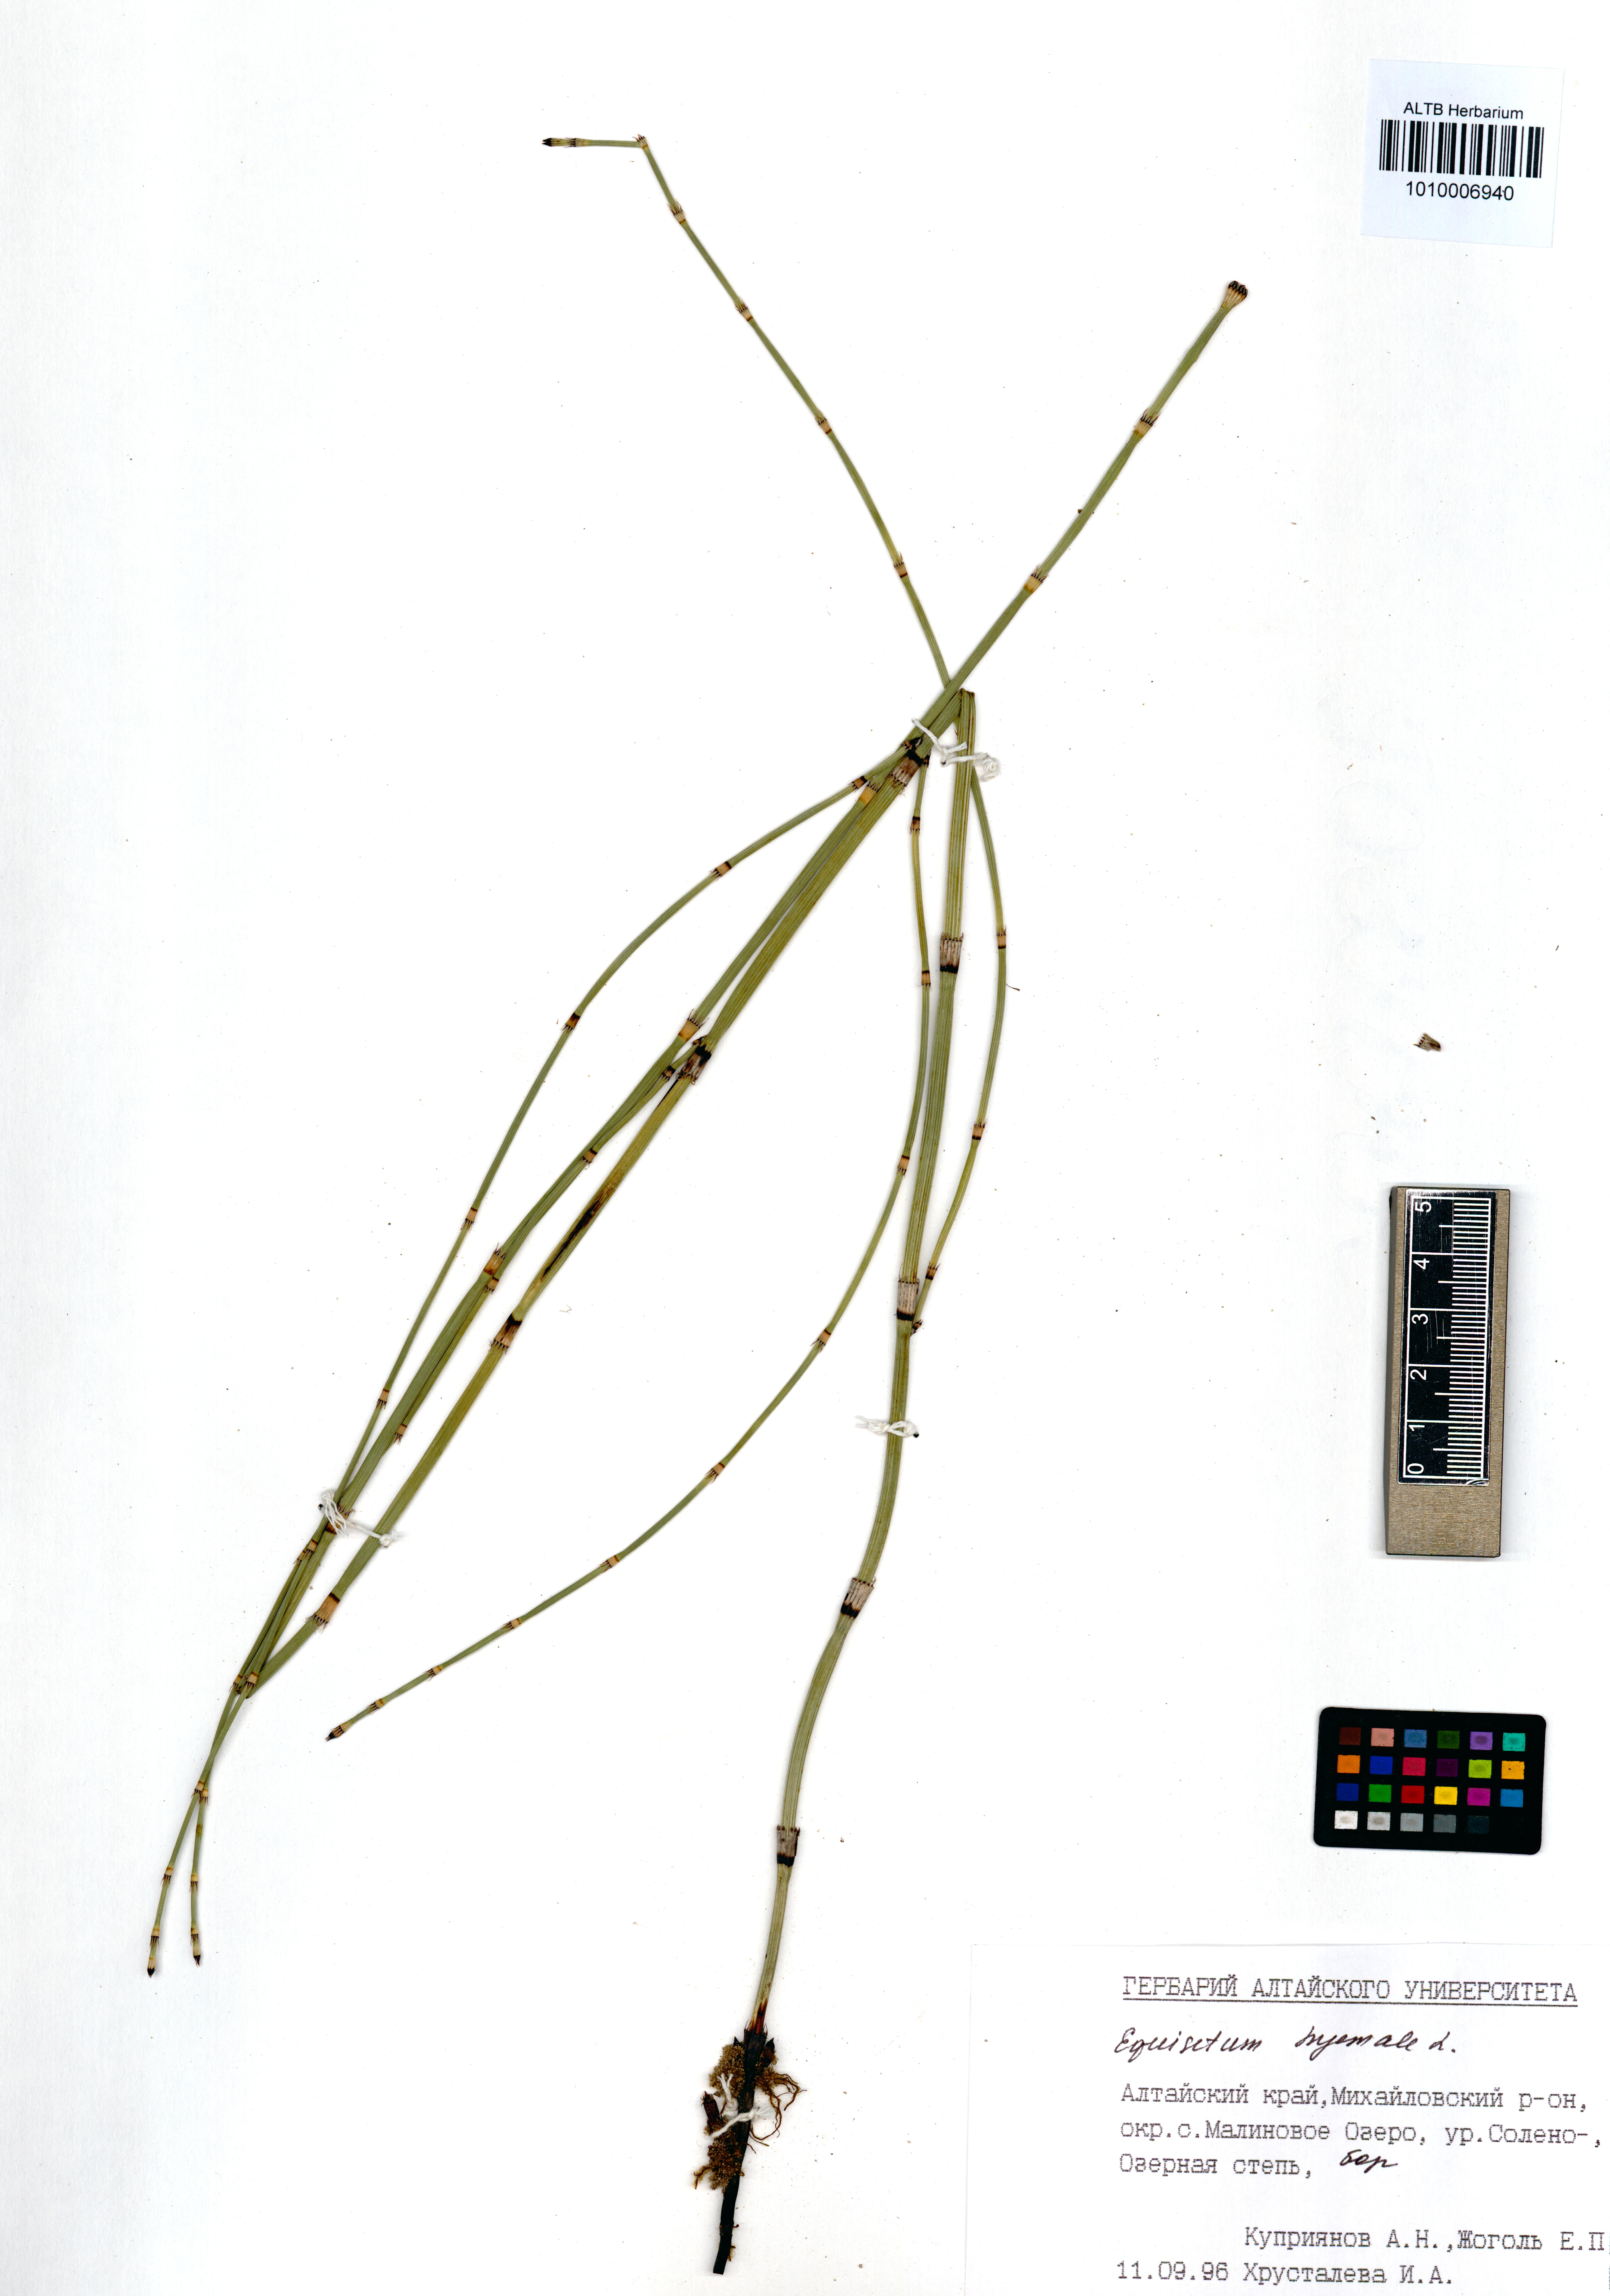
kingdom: Plantae
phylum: Tracheophyta
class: Polypodiopsida
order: Equisetales
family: Equisetaceae
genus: Equisetum
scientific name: Equisetum hyemale
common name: Rough horsetail
